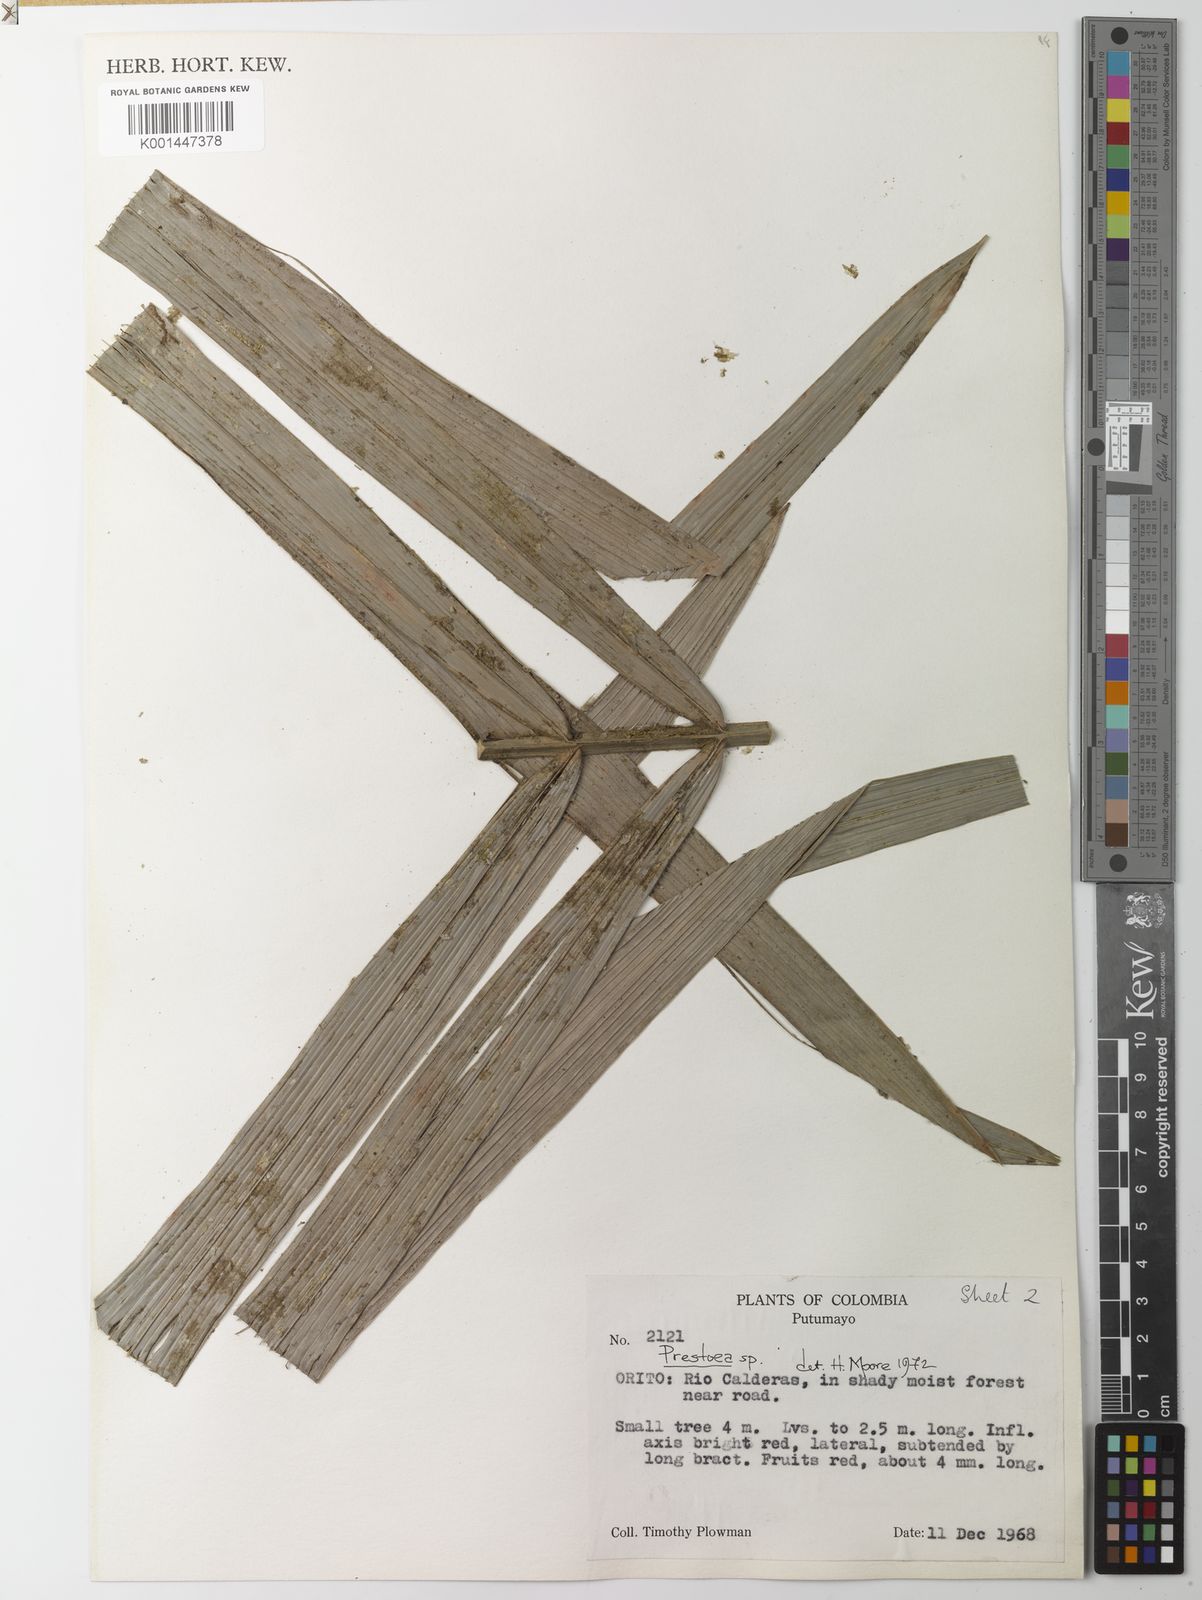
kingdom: Plantae
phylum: Tracheophyta
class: Liliopsida
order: Arecales
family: Arecaceae
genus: Prestoea
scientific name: Prestoea schultzeana
